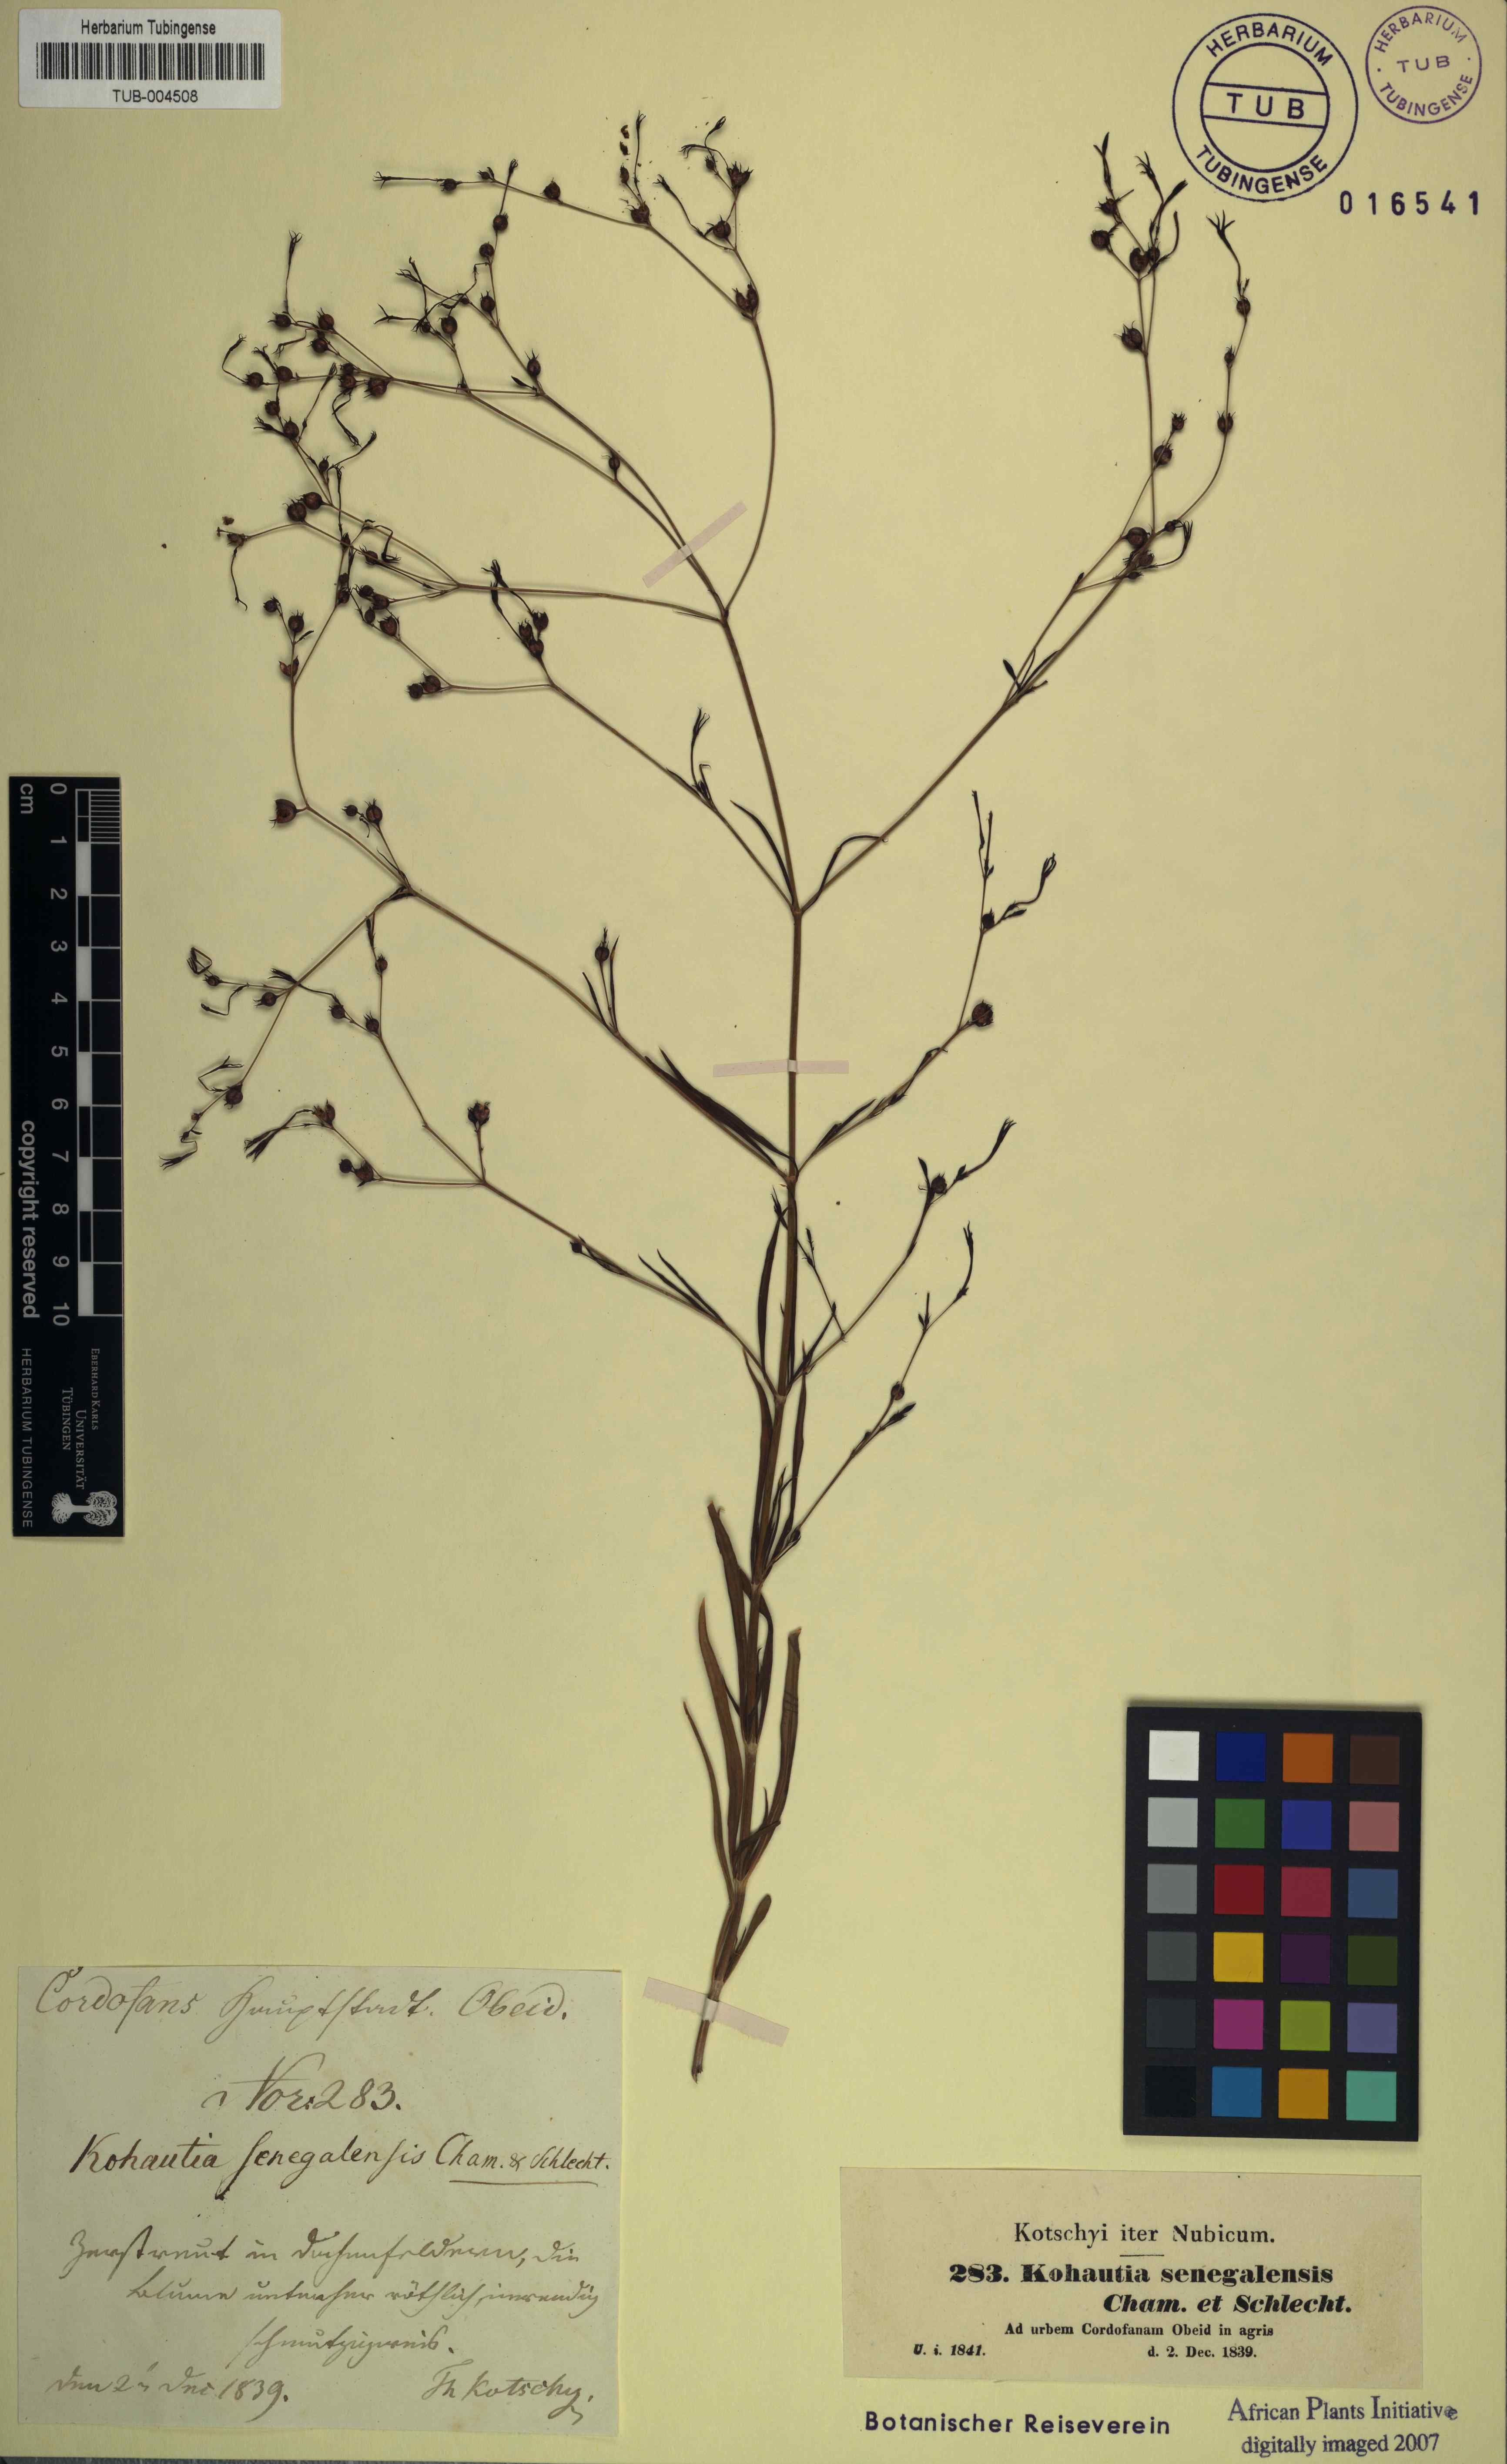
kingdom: Plantae
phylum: Tracheophyta
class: Magnoliopsida
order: Gentianales
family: Rubiaceae
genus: Kohautia
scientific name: Kohautia tenuis
